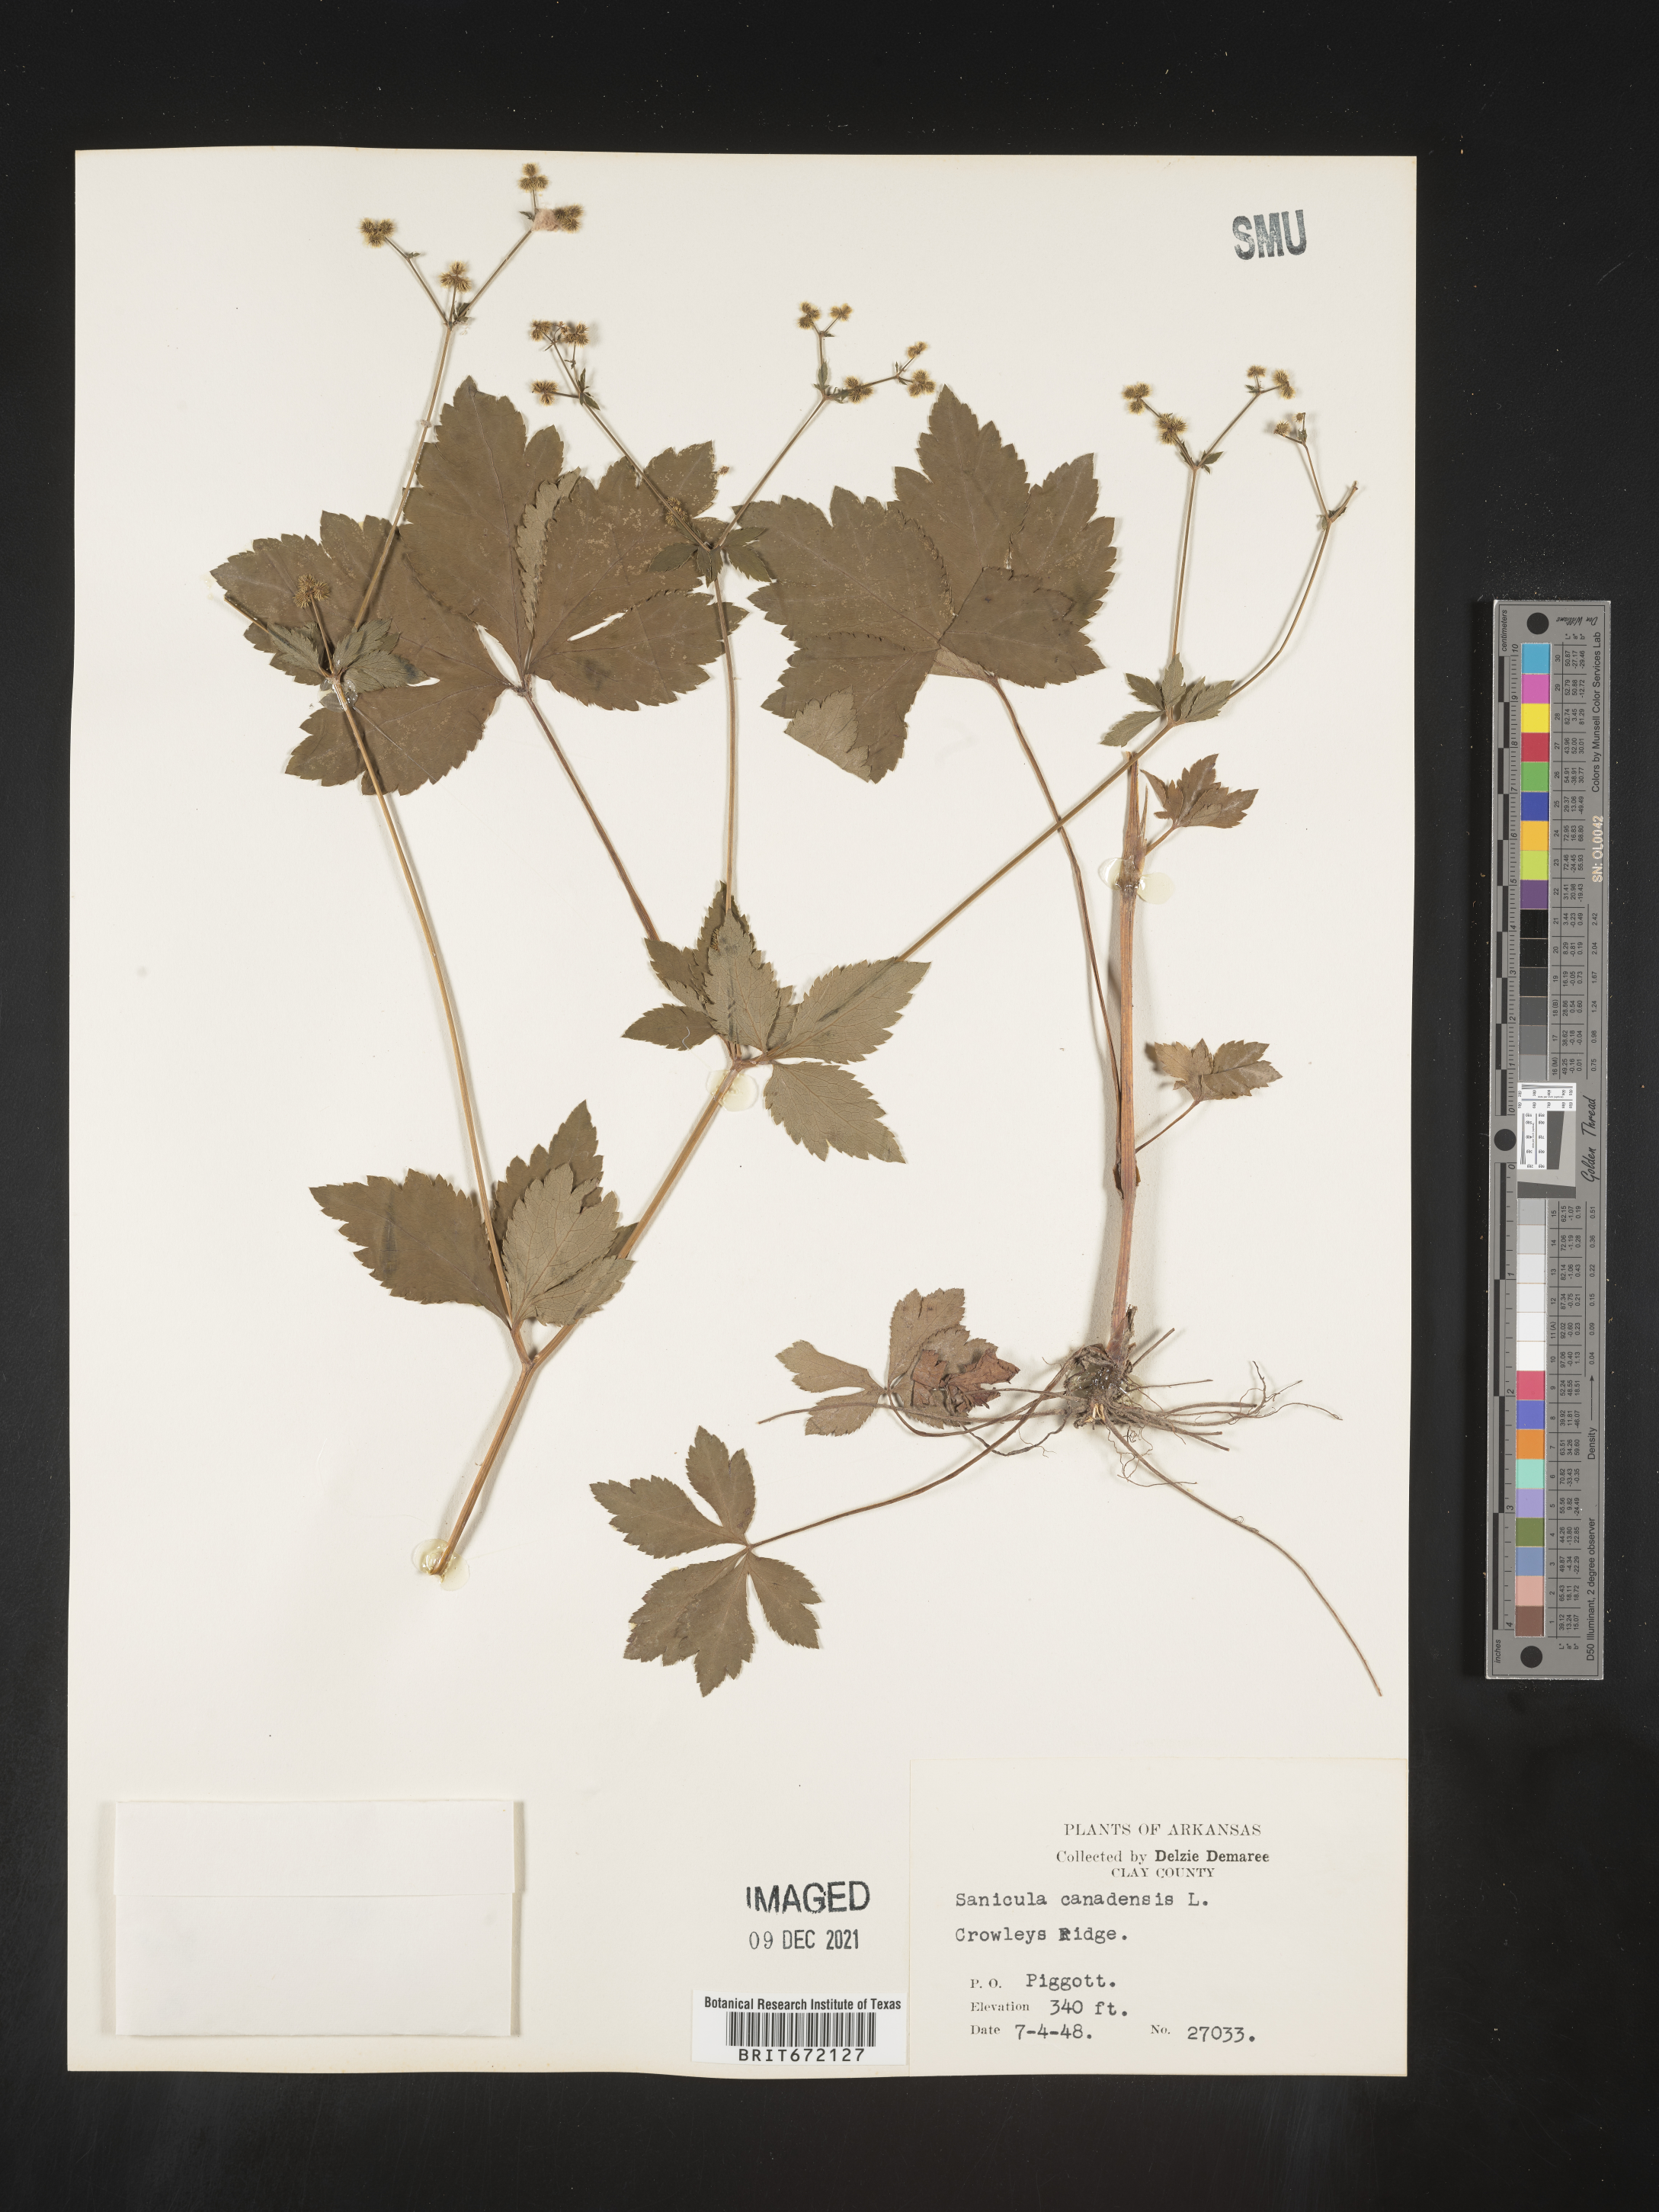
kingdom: Plantae
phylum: Tracheophyta
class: Magnoliopsida
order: Apiales
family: Apiaceae
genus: Sanicula
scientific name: Sanicula canadensis
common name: Canada sanicle
